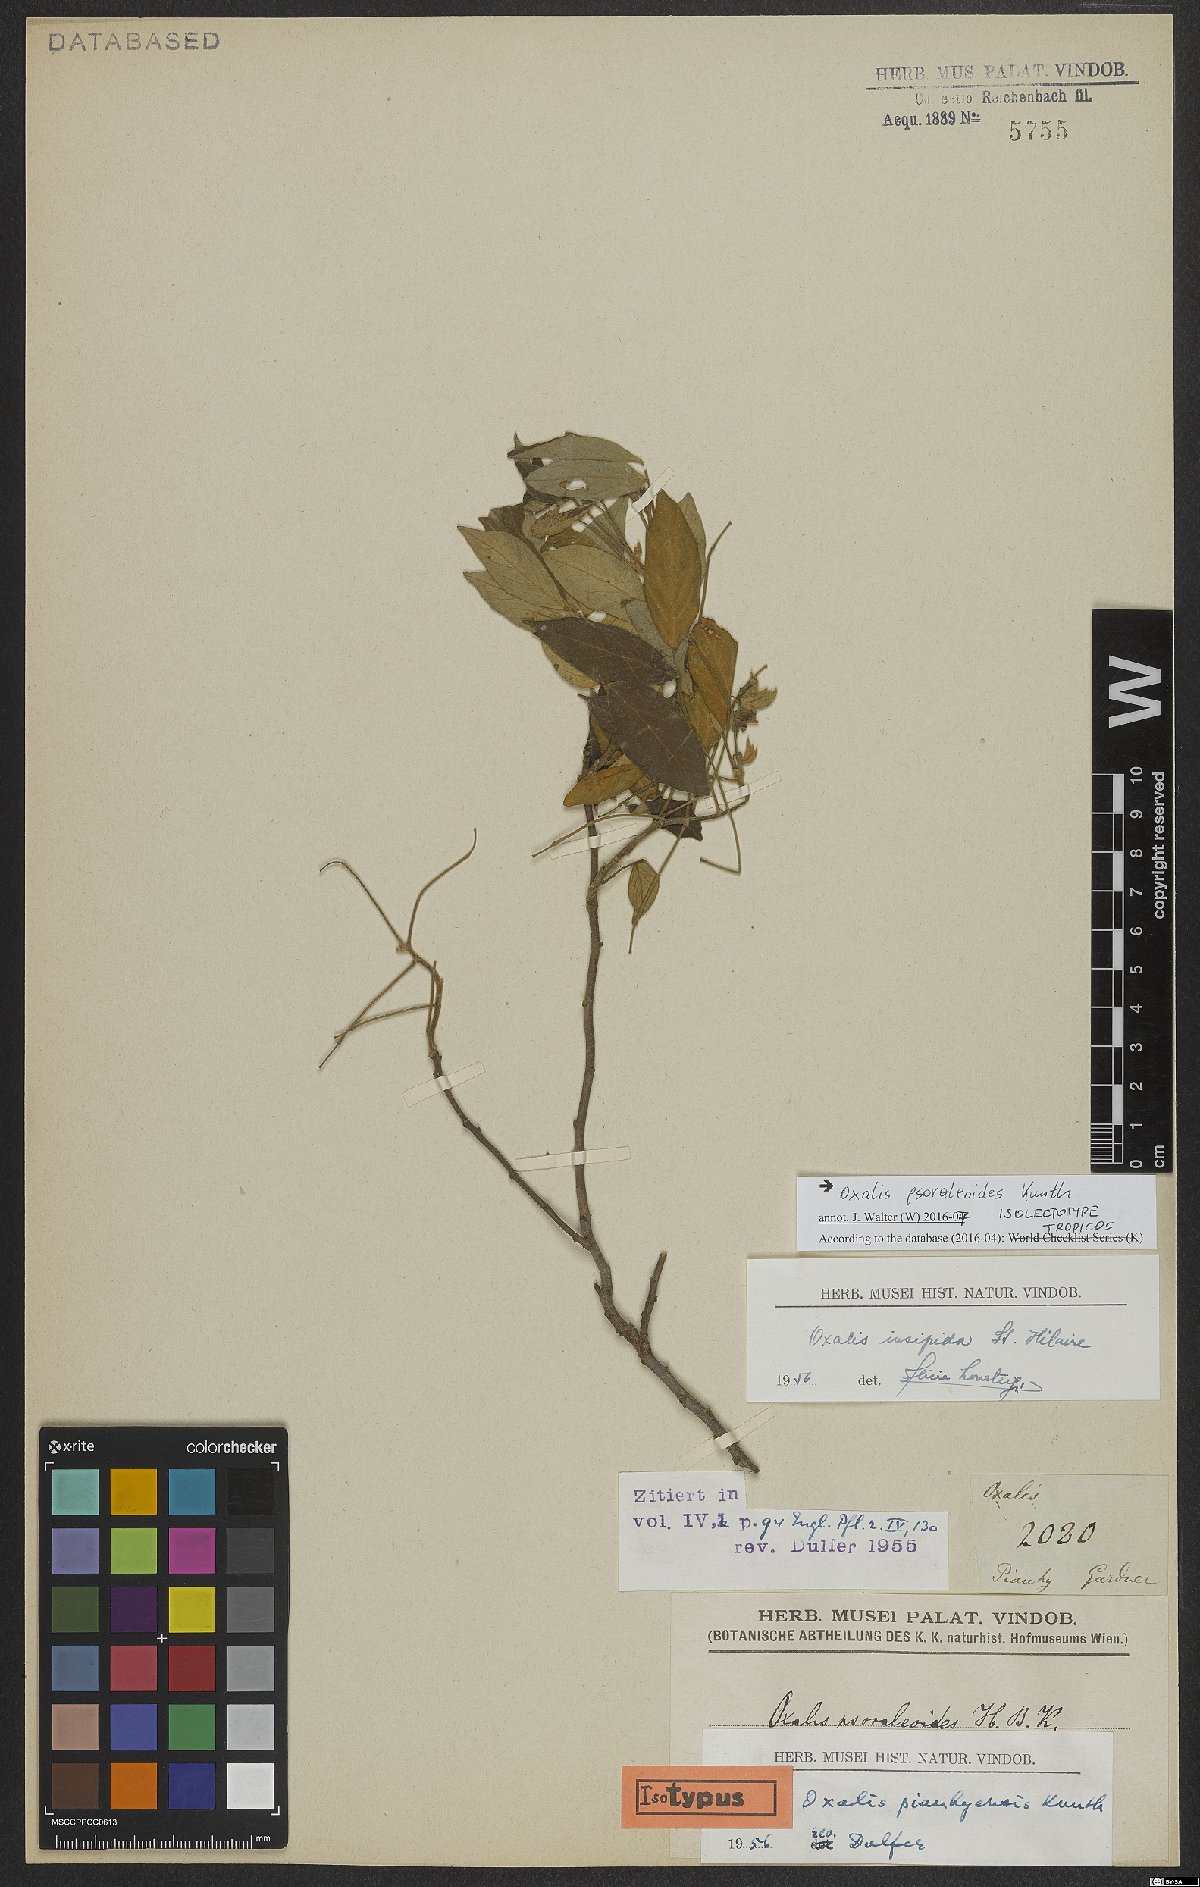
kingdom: Plantae
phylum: Tracheophyta
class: Magnoliopsida
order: Oxalidales
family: Oxalidaceae
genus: Oxalis
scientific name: Oxalis psoraleoides
